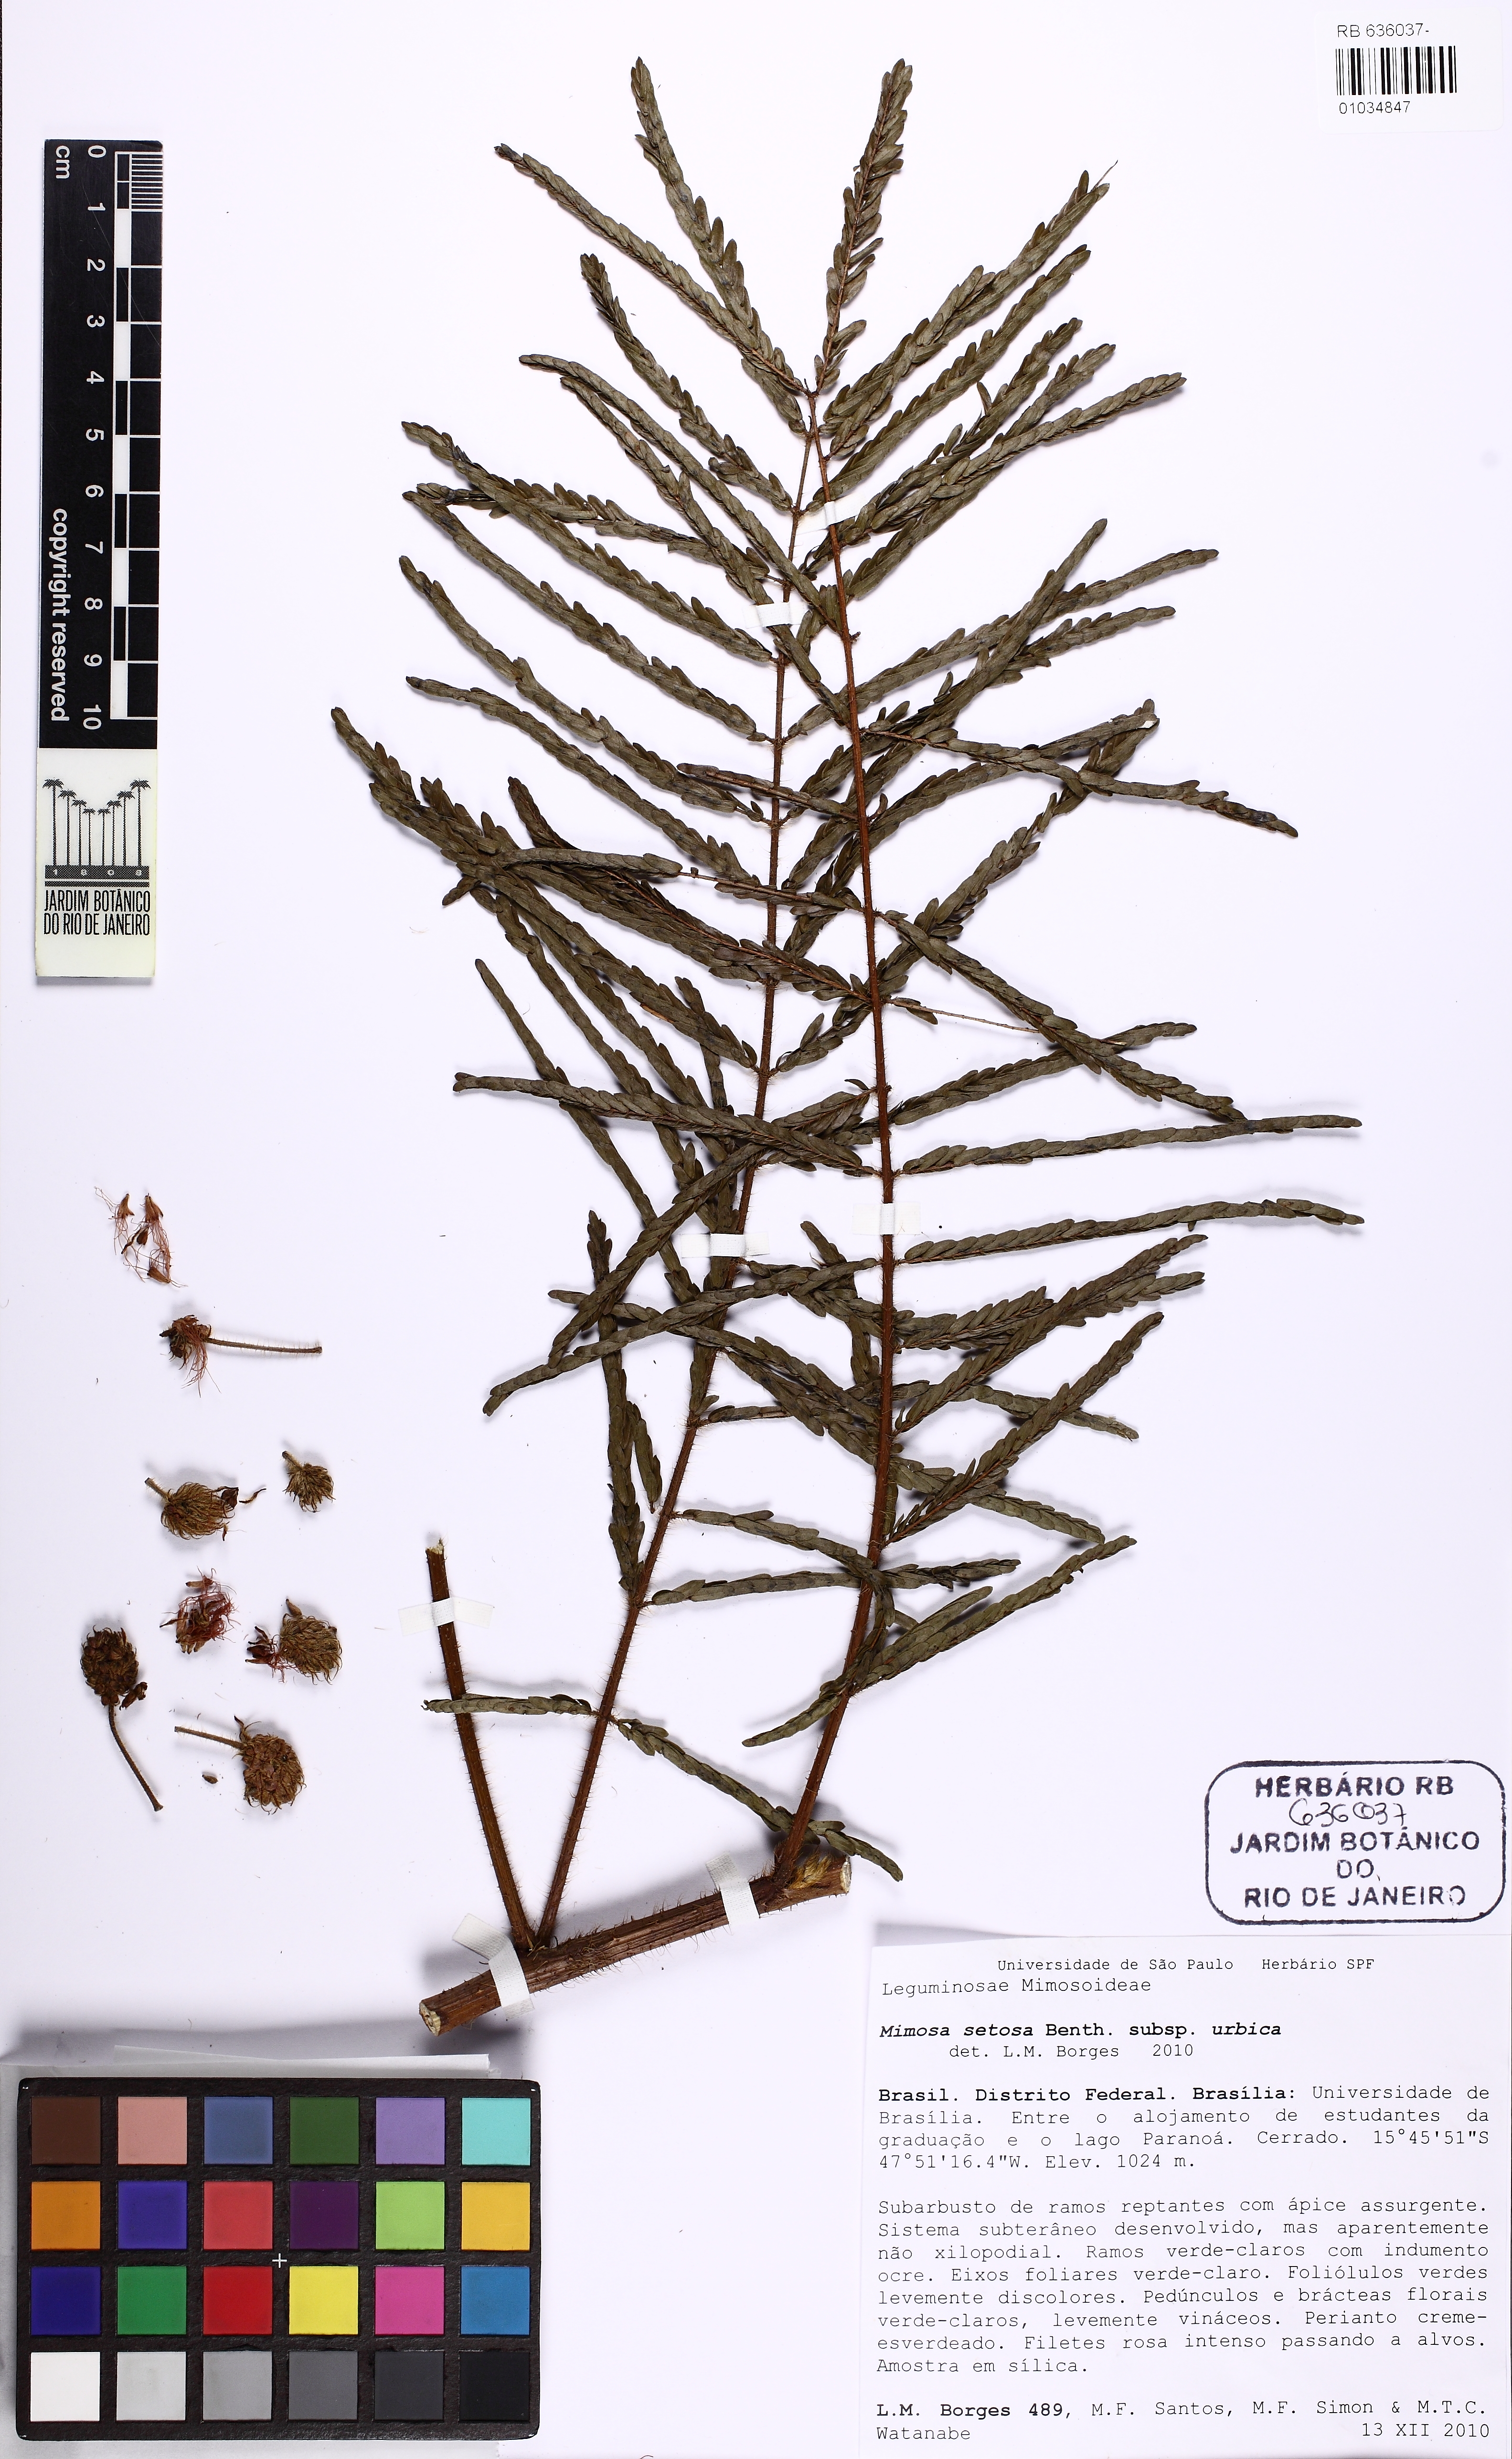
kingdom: Plantae
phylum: Tracheophyta
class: Magnoliopsida
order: Fabales
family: Fabaceae
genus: Mimosa
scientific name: Mimosa setosa
